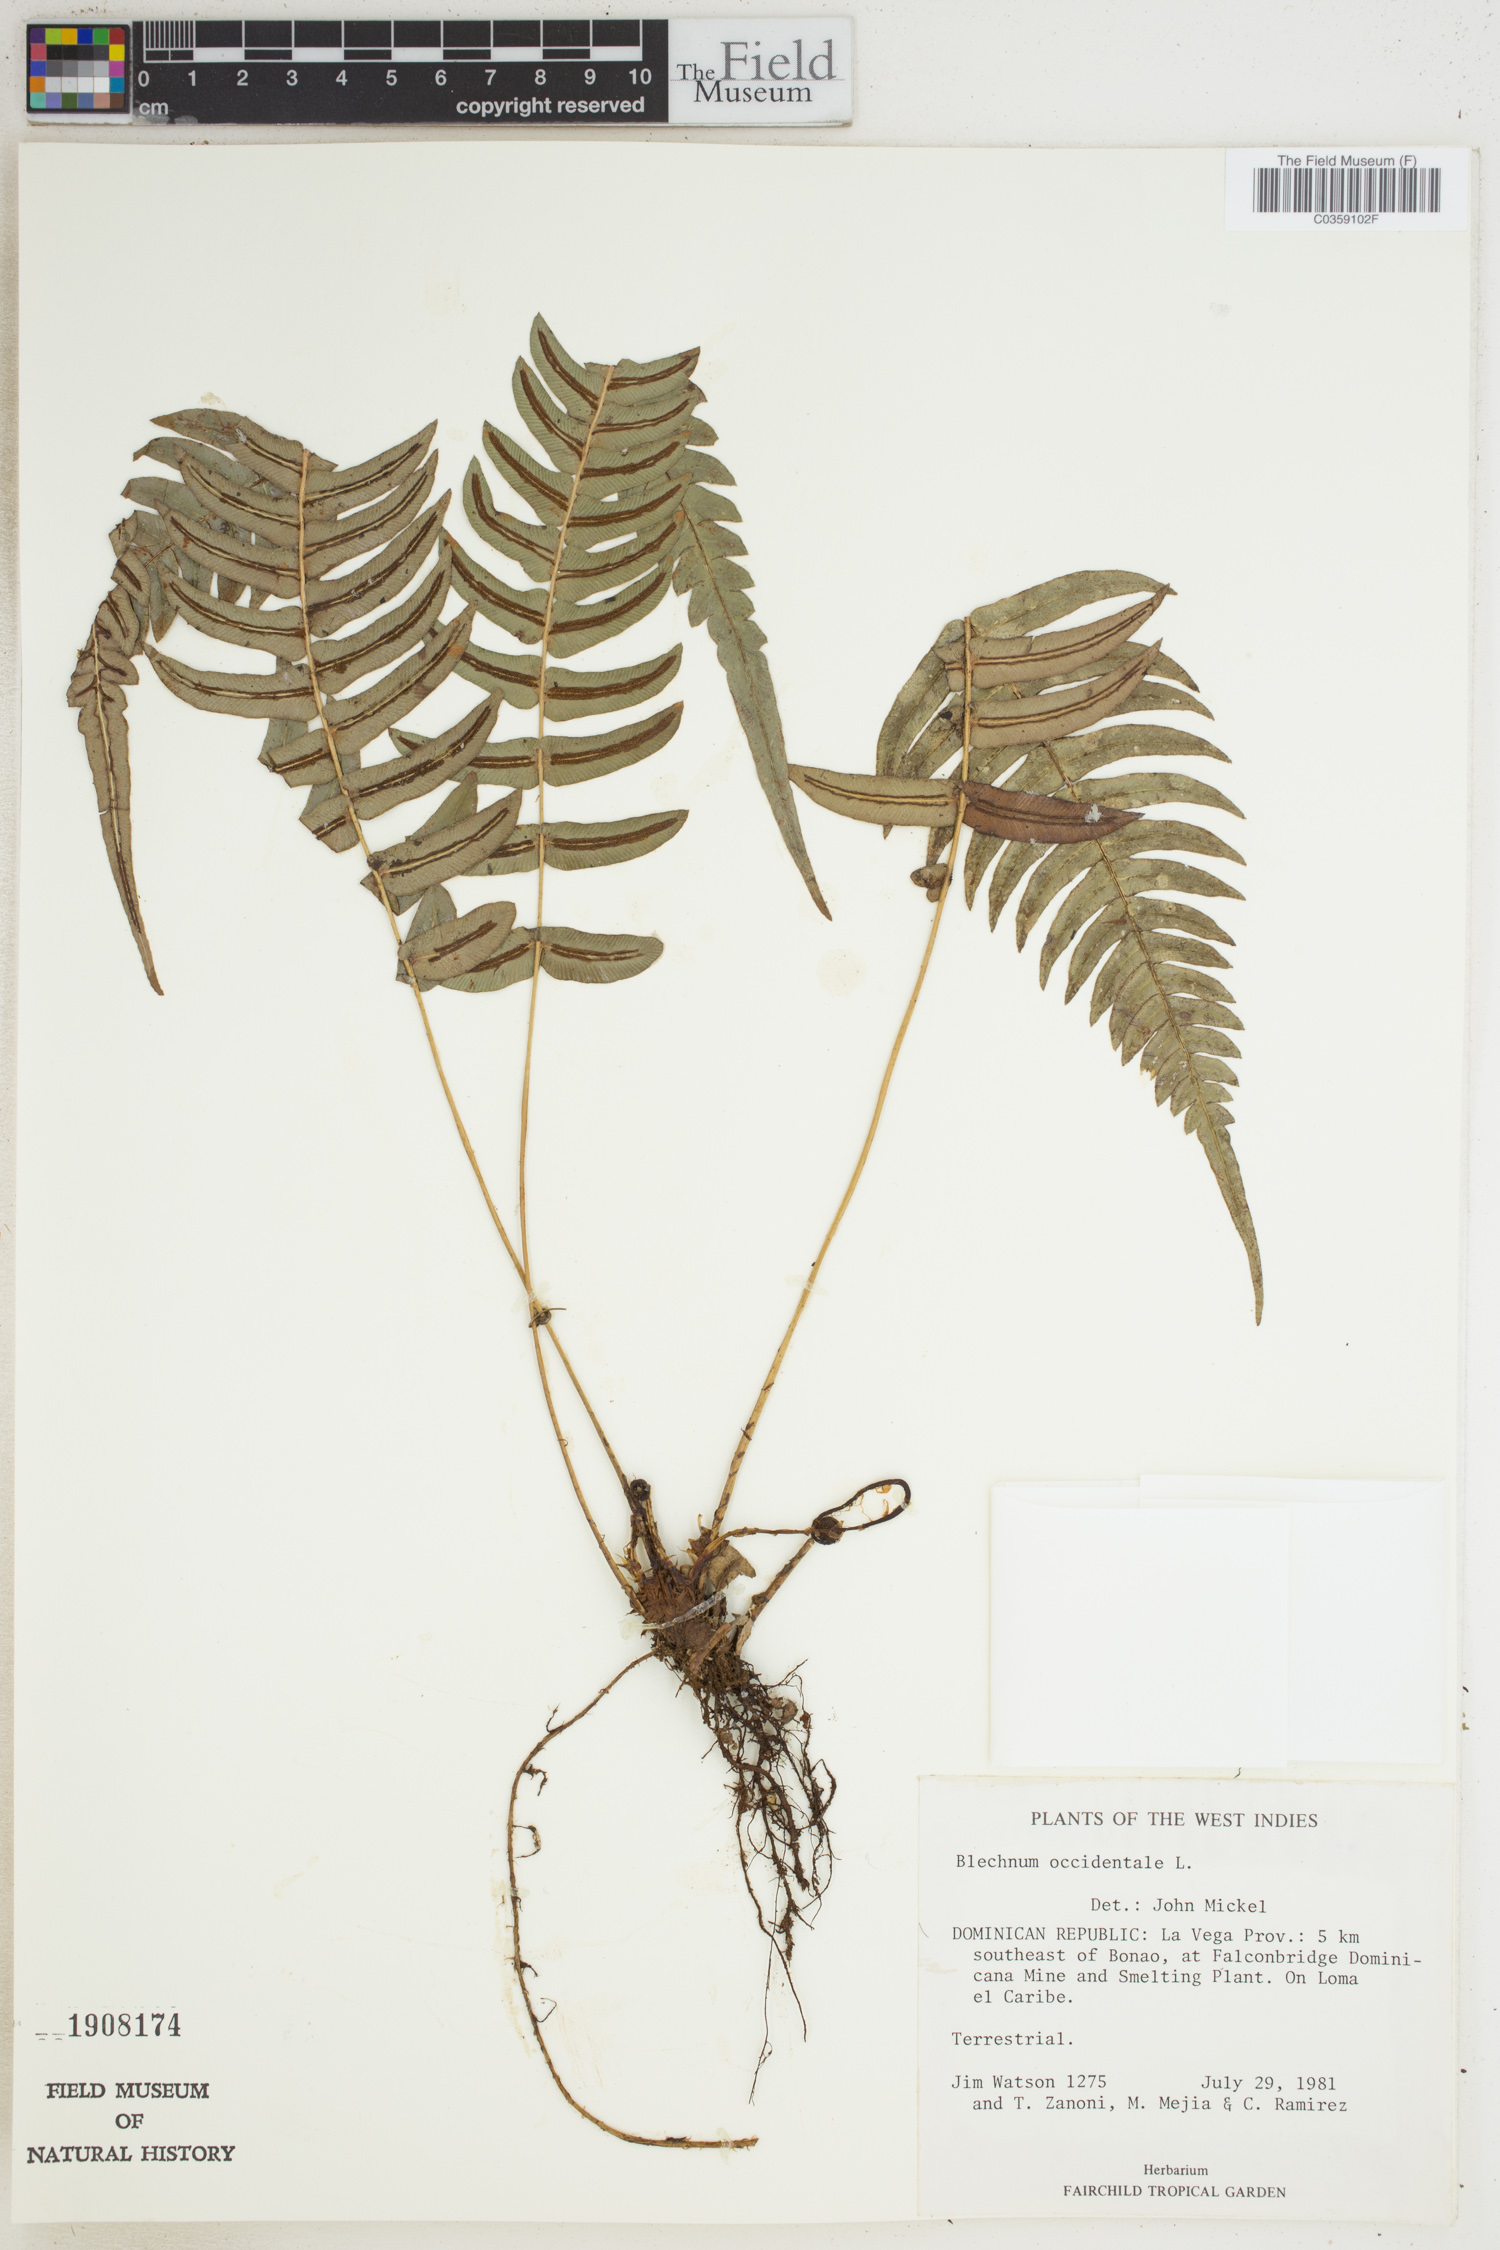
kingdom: Plantae
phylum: Tracheophyta
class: Polypodiopsida
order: Polypodiales
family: Blechnaceae
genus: Blechnum
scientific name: Blechnum occidentale
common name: Hammock fern
